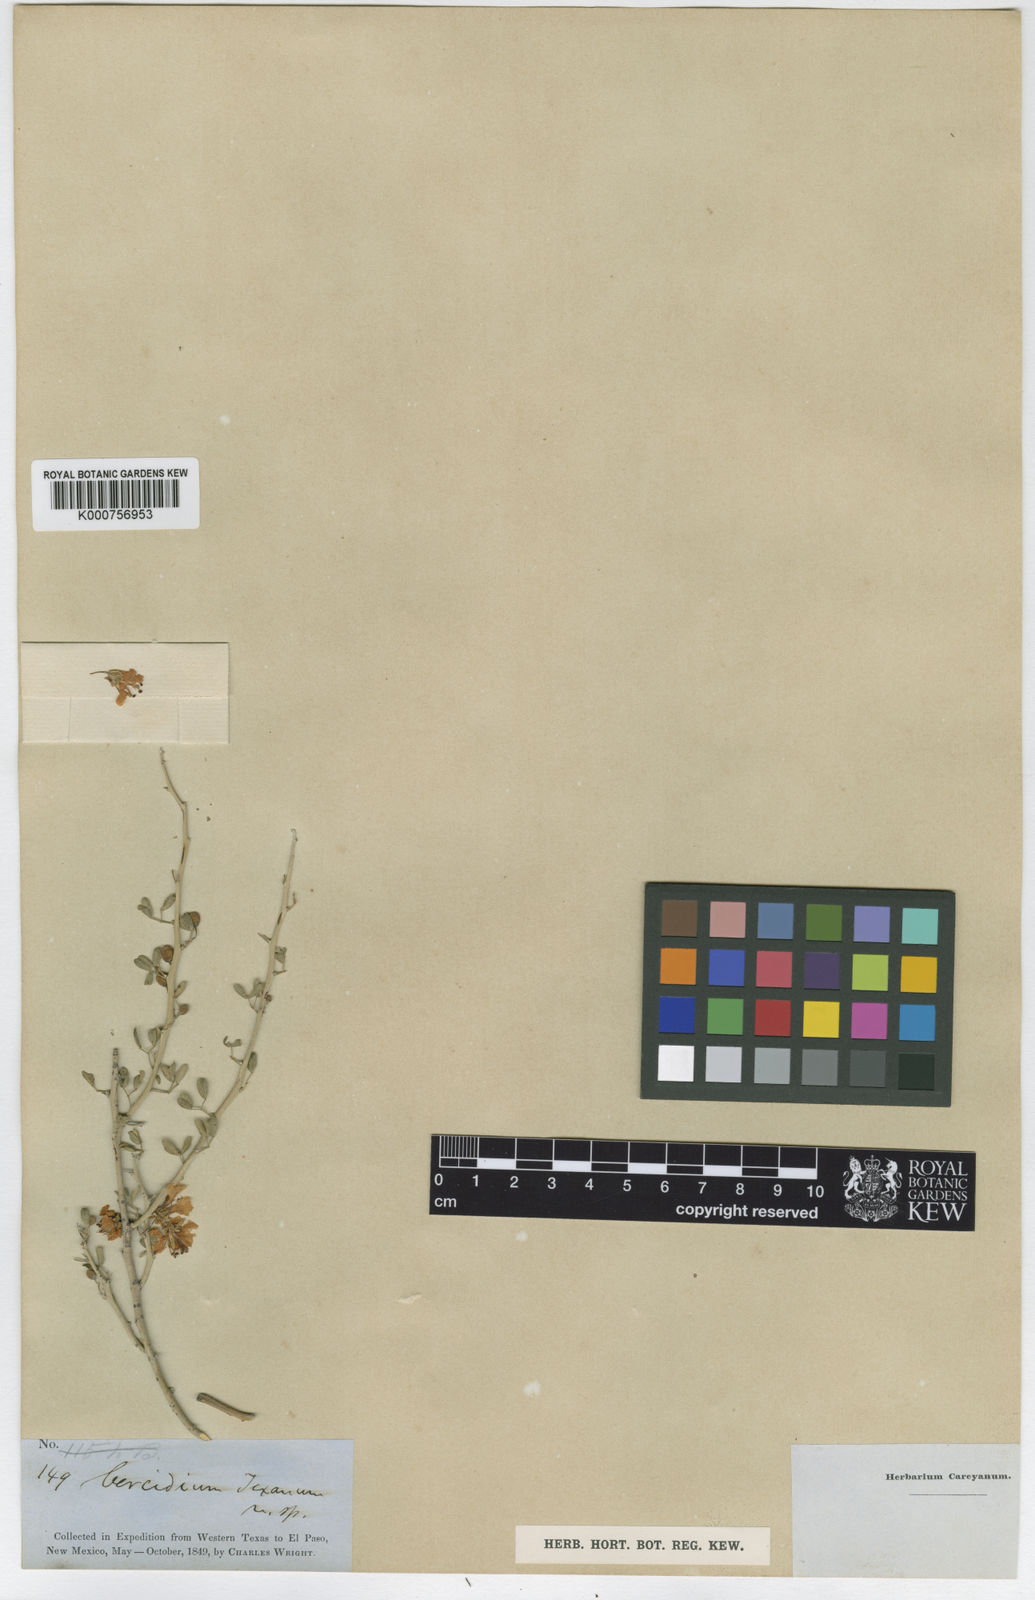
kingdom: Plantae
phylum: Tracheophyta
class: Magnoliopsida
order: Fabales
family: Fabaceae
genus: Parkinsonia
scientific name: Parkinsonia texana
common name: Texas paloverde
